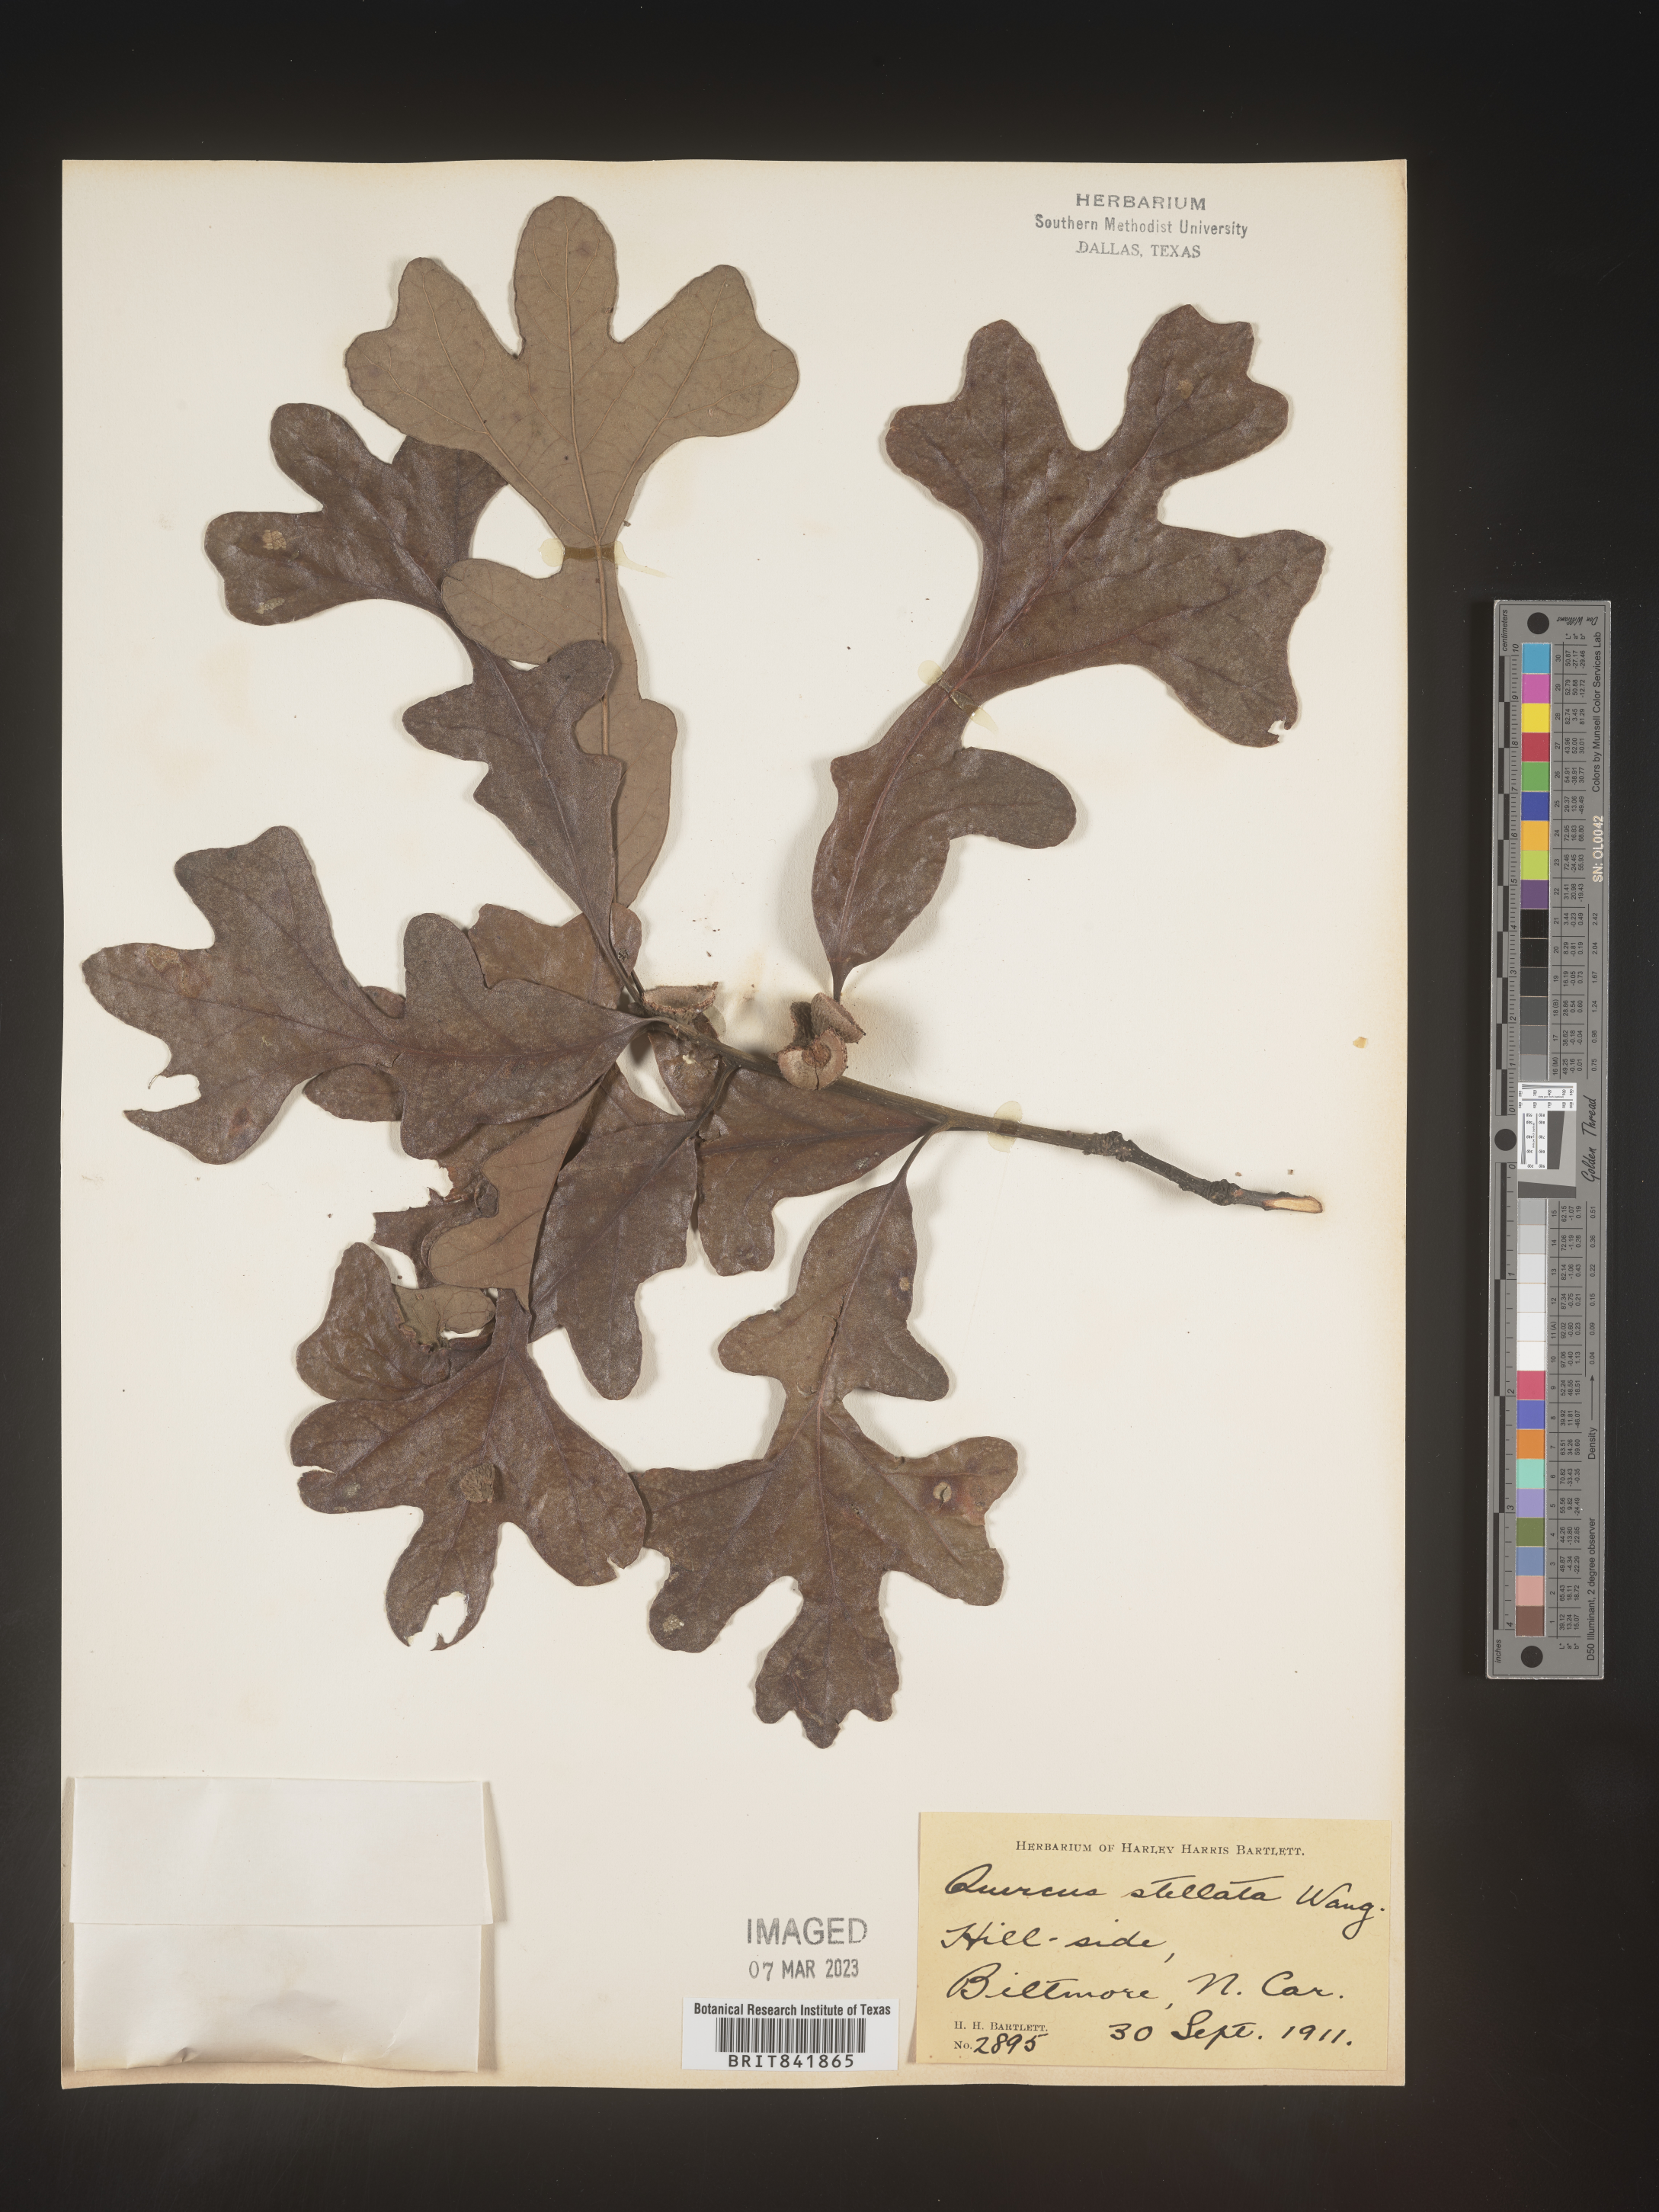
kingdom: Plantae
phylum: Tracheophyta
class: Magnoliopsida
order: Fagales
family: Fagaceae
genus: Quercus
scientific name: Quercus stellata
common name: Post oak
